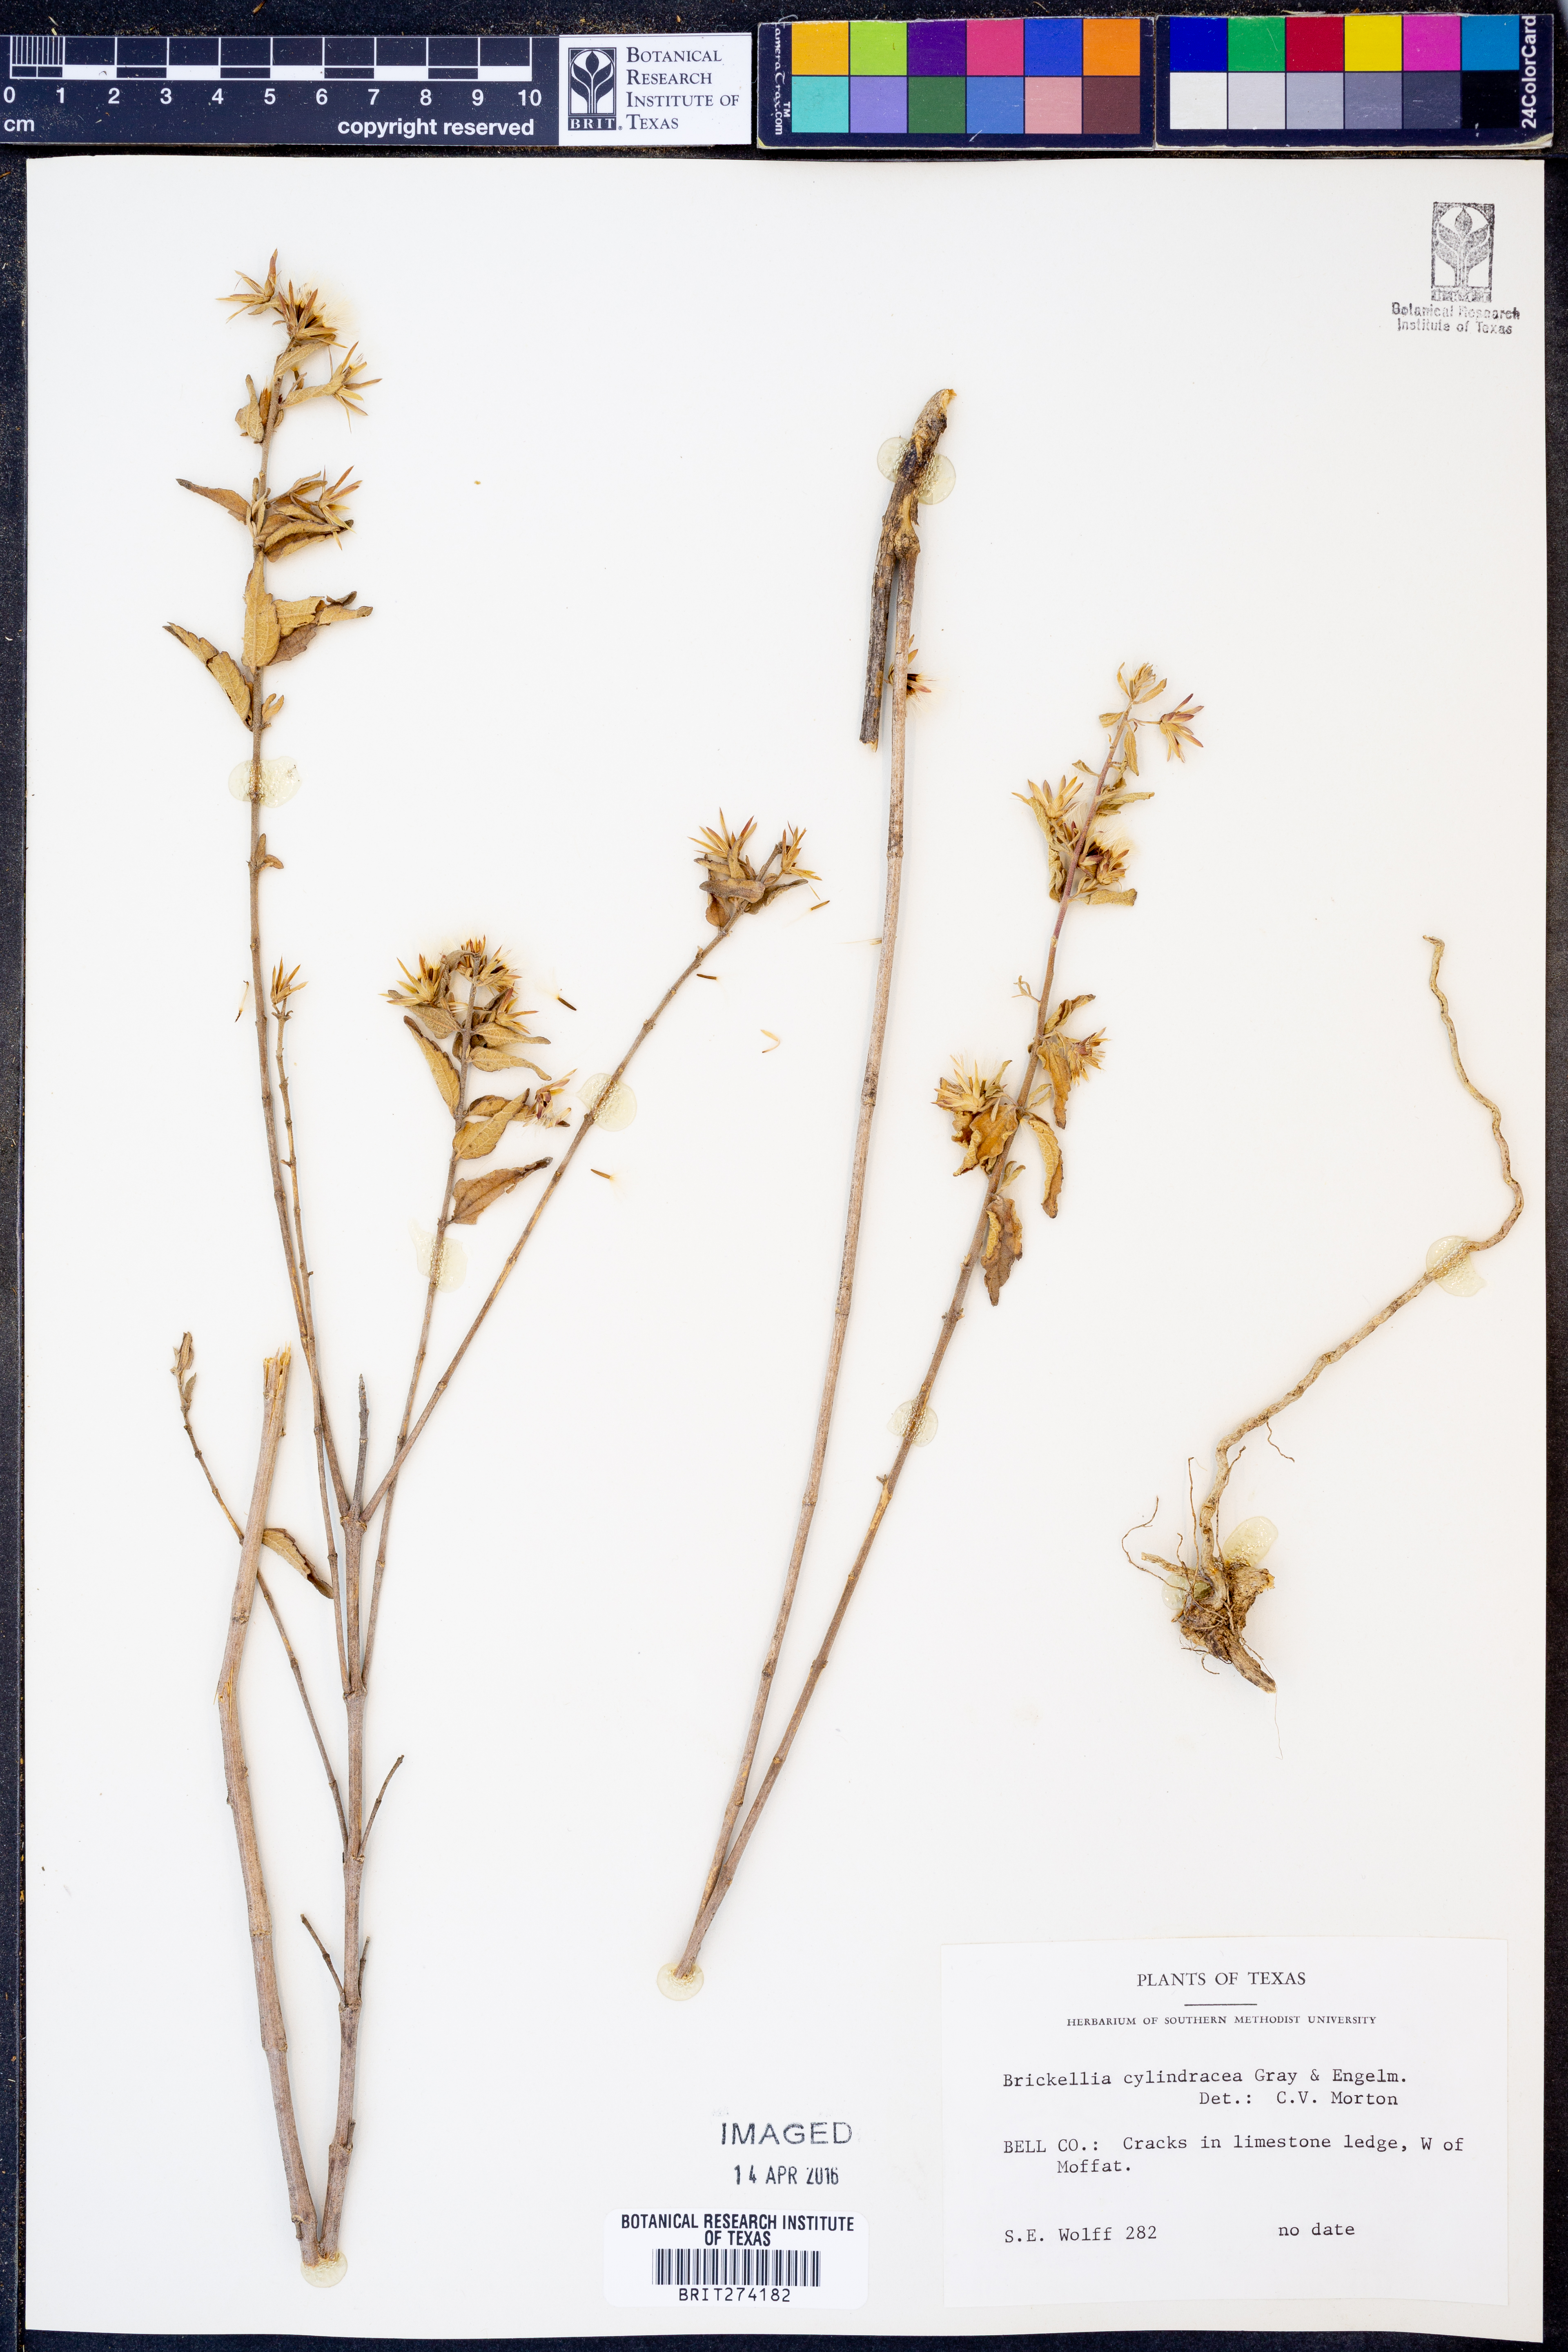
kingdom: Plantae
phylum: Tracheophyta
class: Magnoliopsida
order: Asterales
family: Asteraceae
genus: Brickellia
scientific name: Brickellia cylindracea
